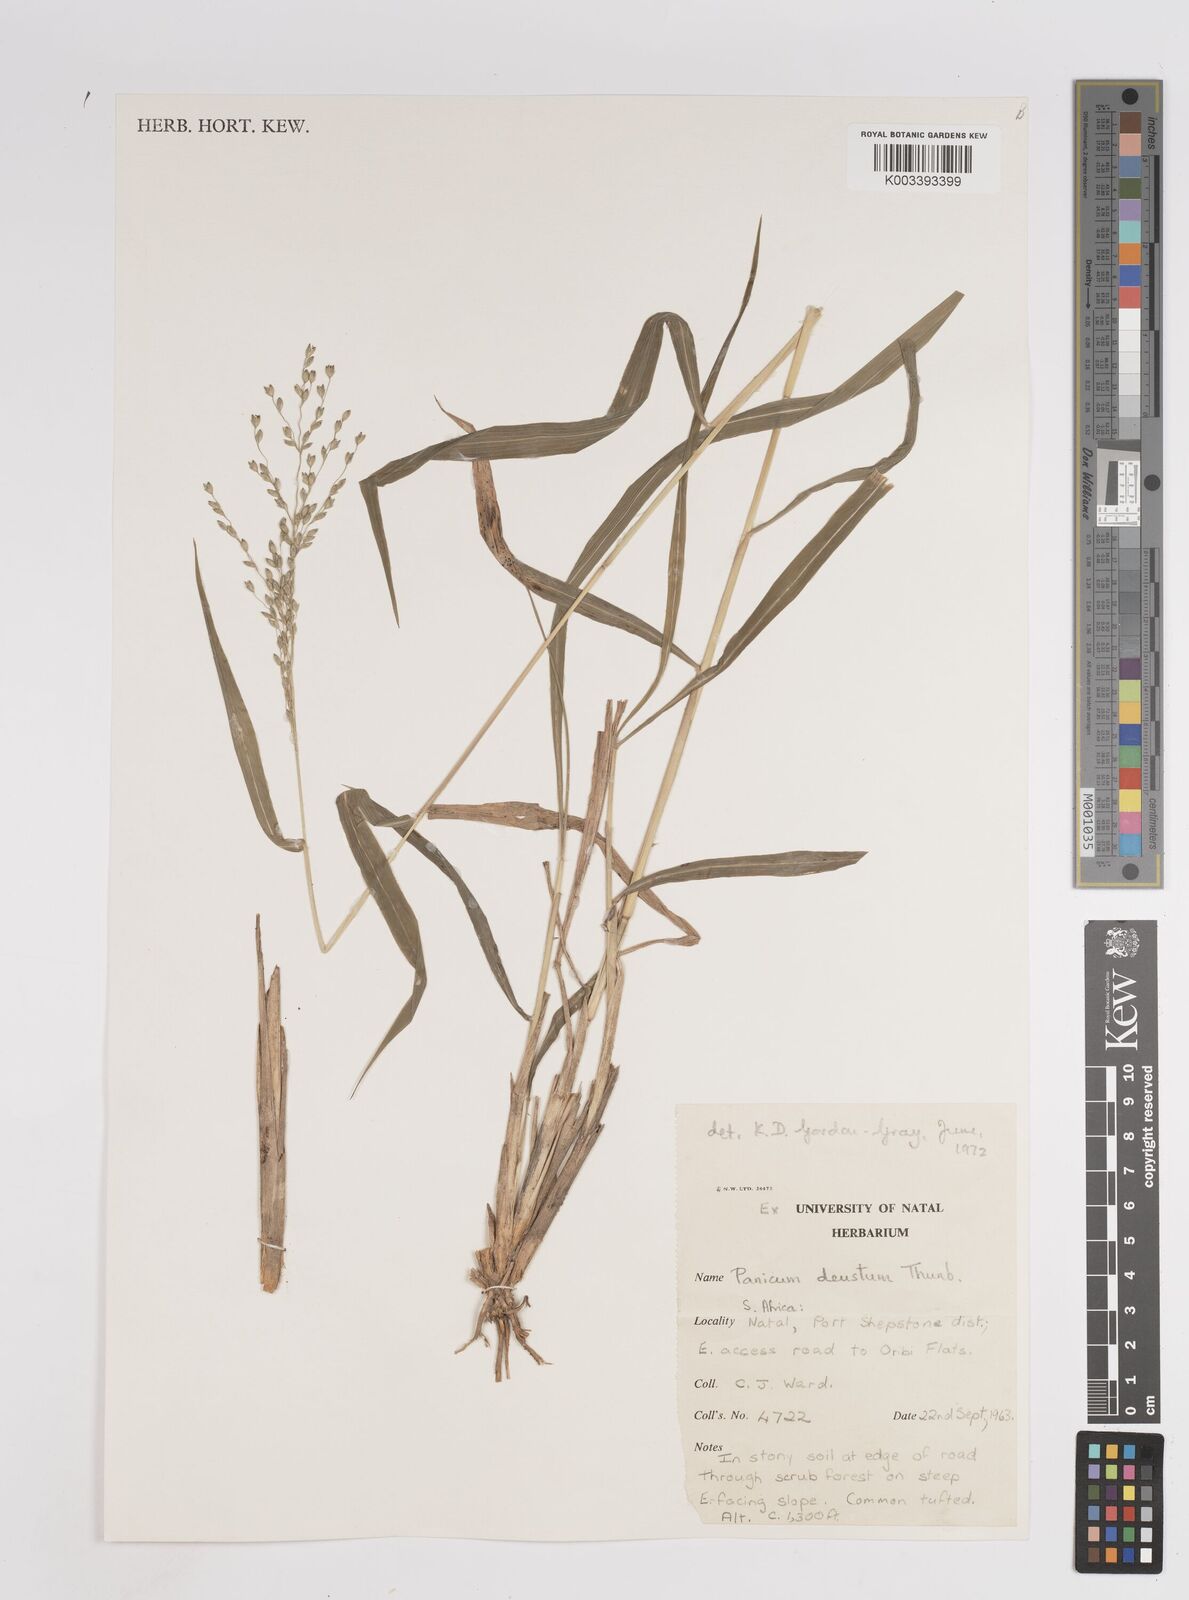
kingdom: Plantae
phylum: Tracheophyta
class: Liliopsida
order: Poales
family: Poaceae
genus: Panicum
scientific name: Panicum deustum
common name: Reed panicum
